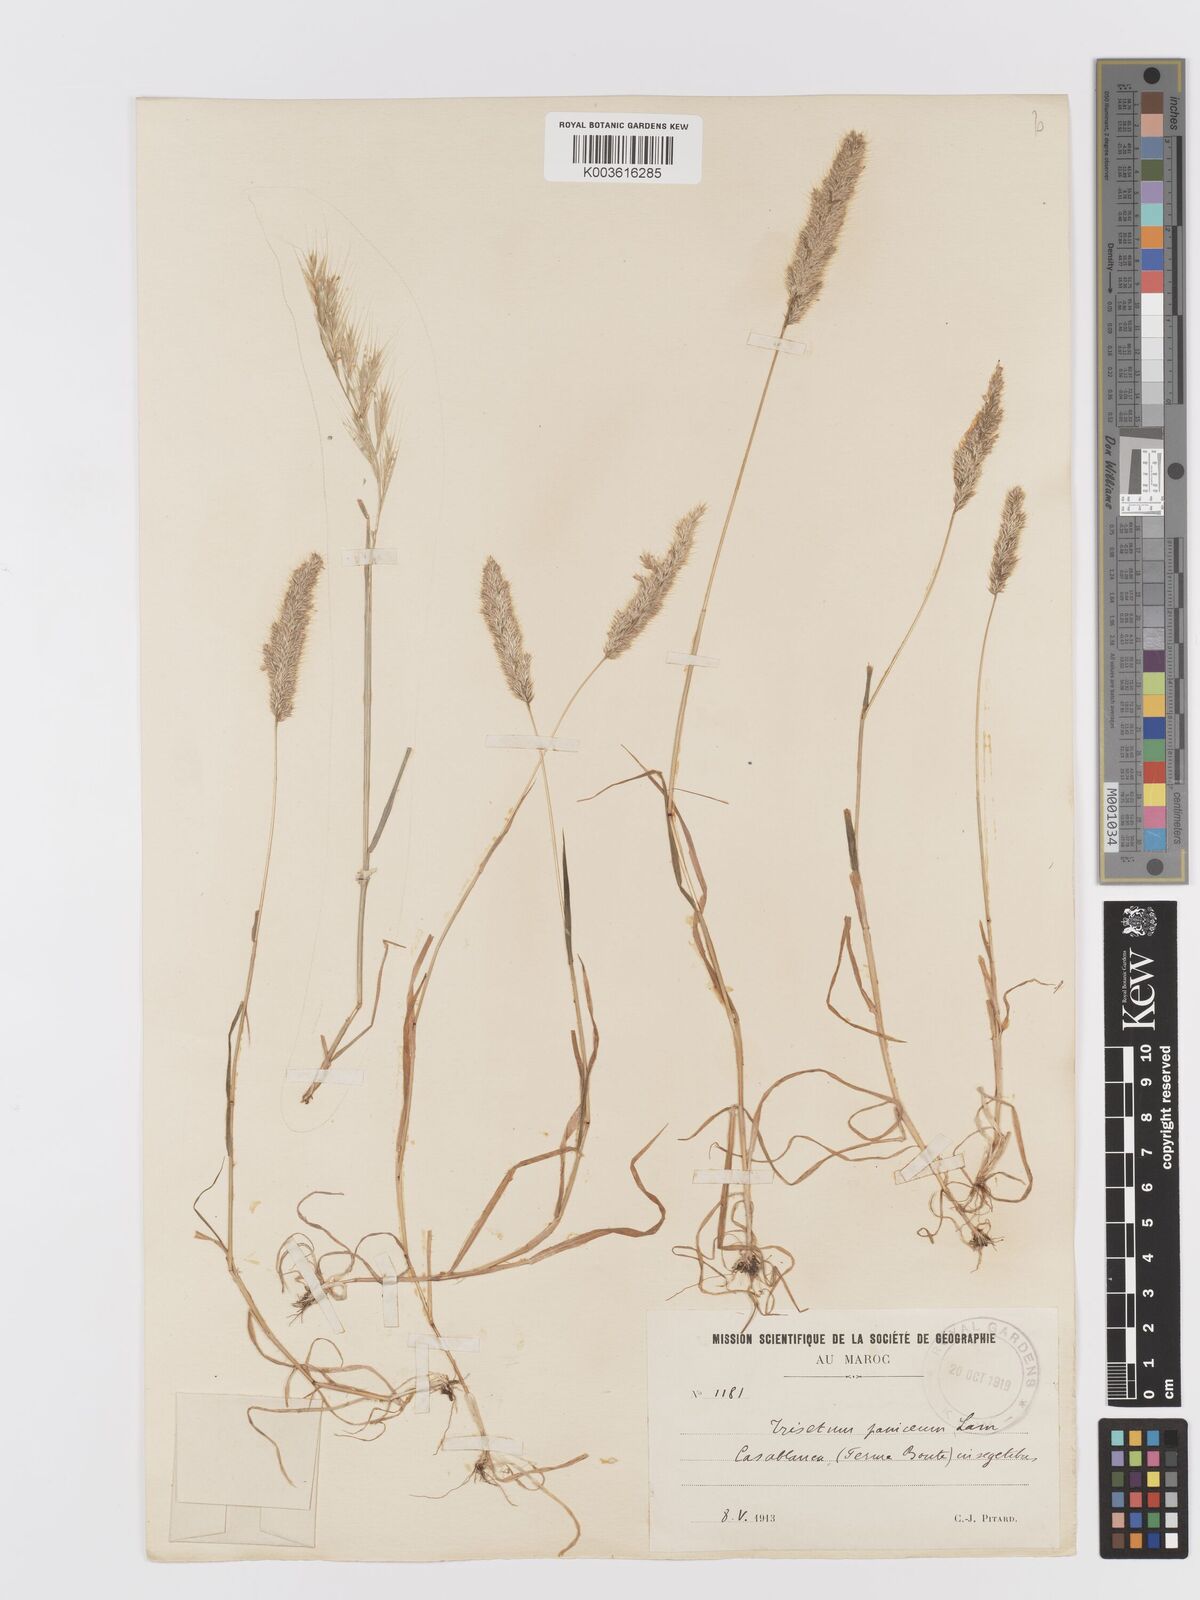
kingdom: Plantae
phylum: Tracheophyta
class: Liliopsida
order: Poales
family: Poaceae
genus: Trisetaria
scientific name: Trisetaria panicea
